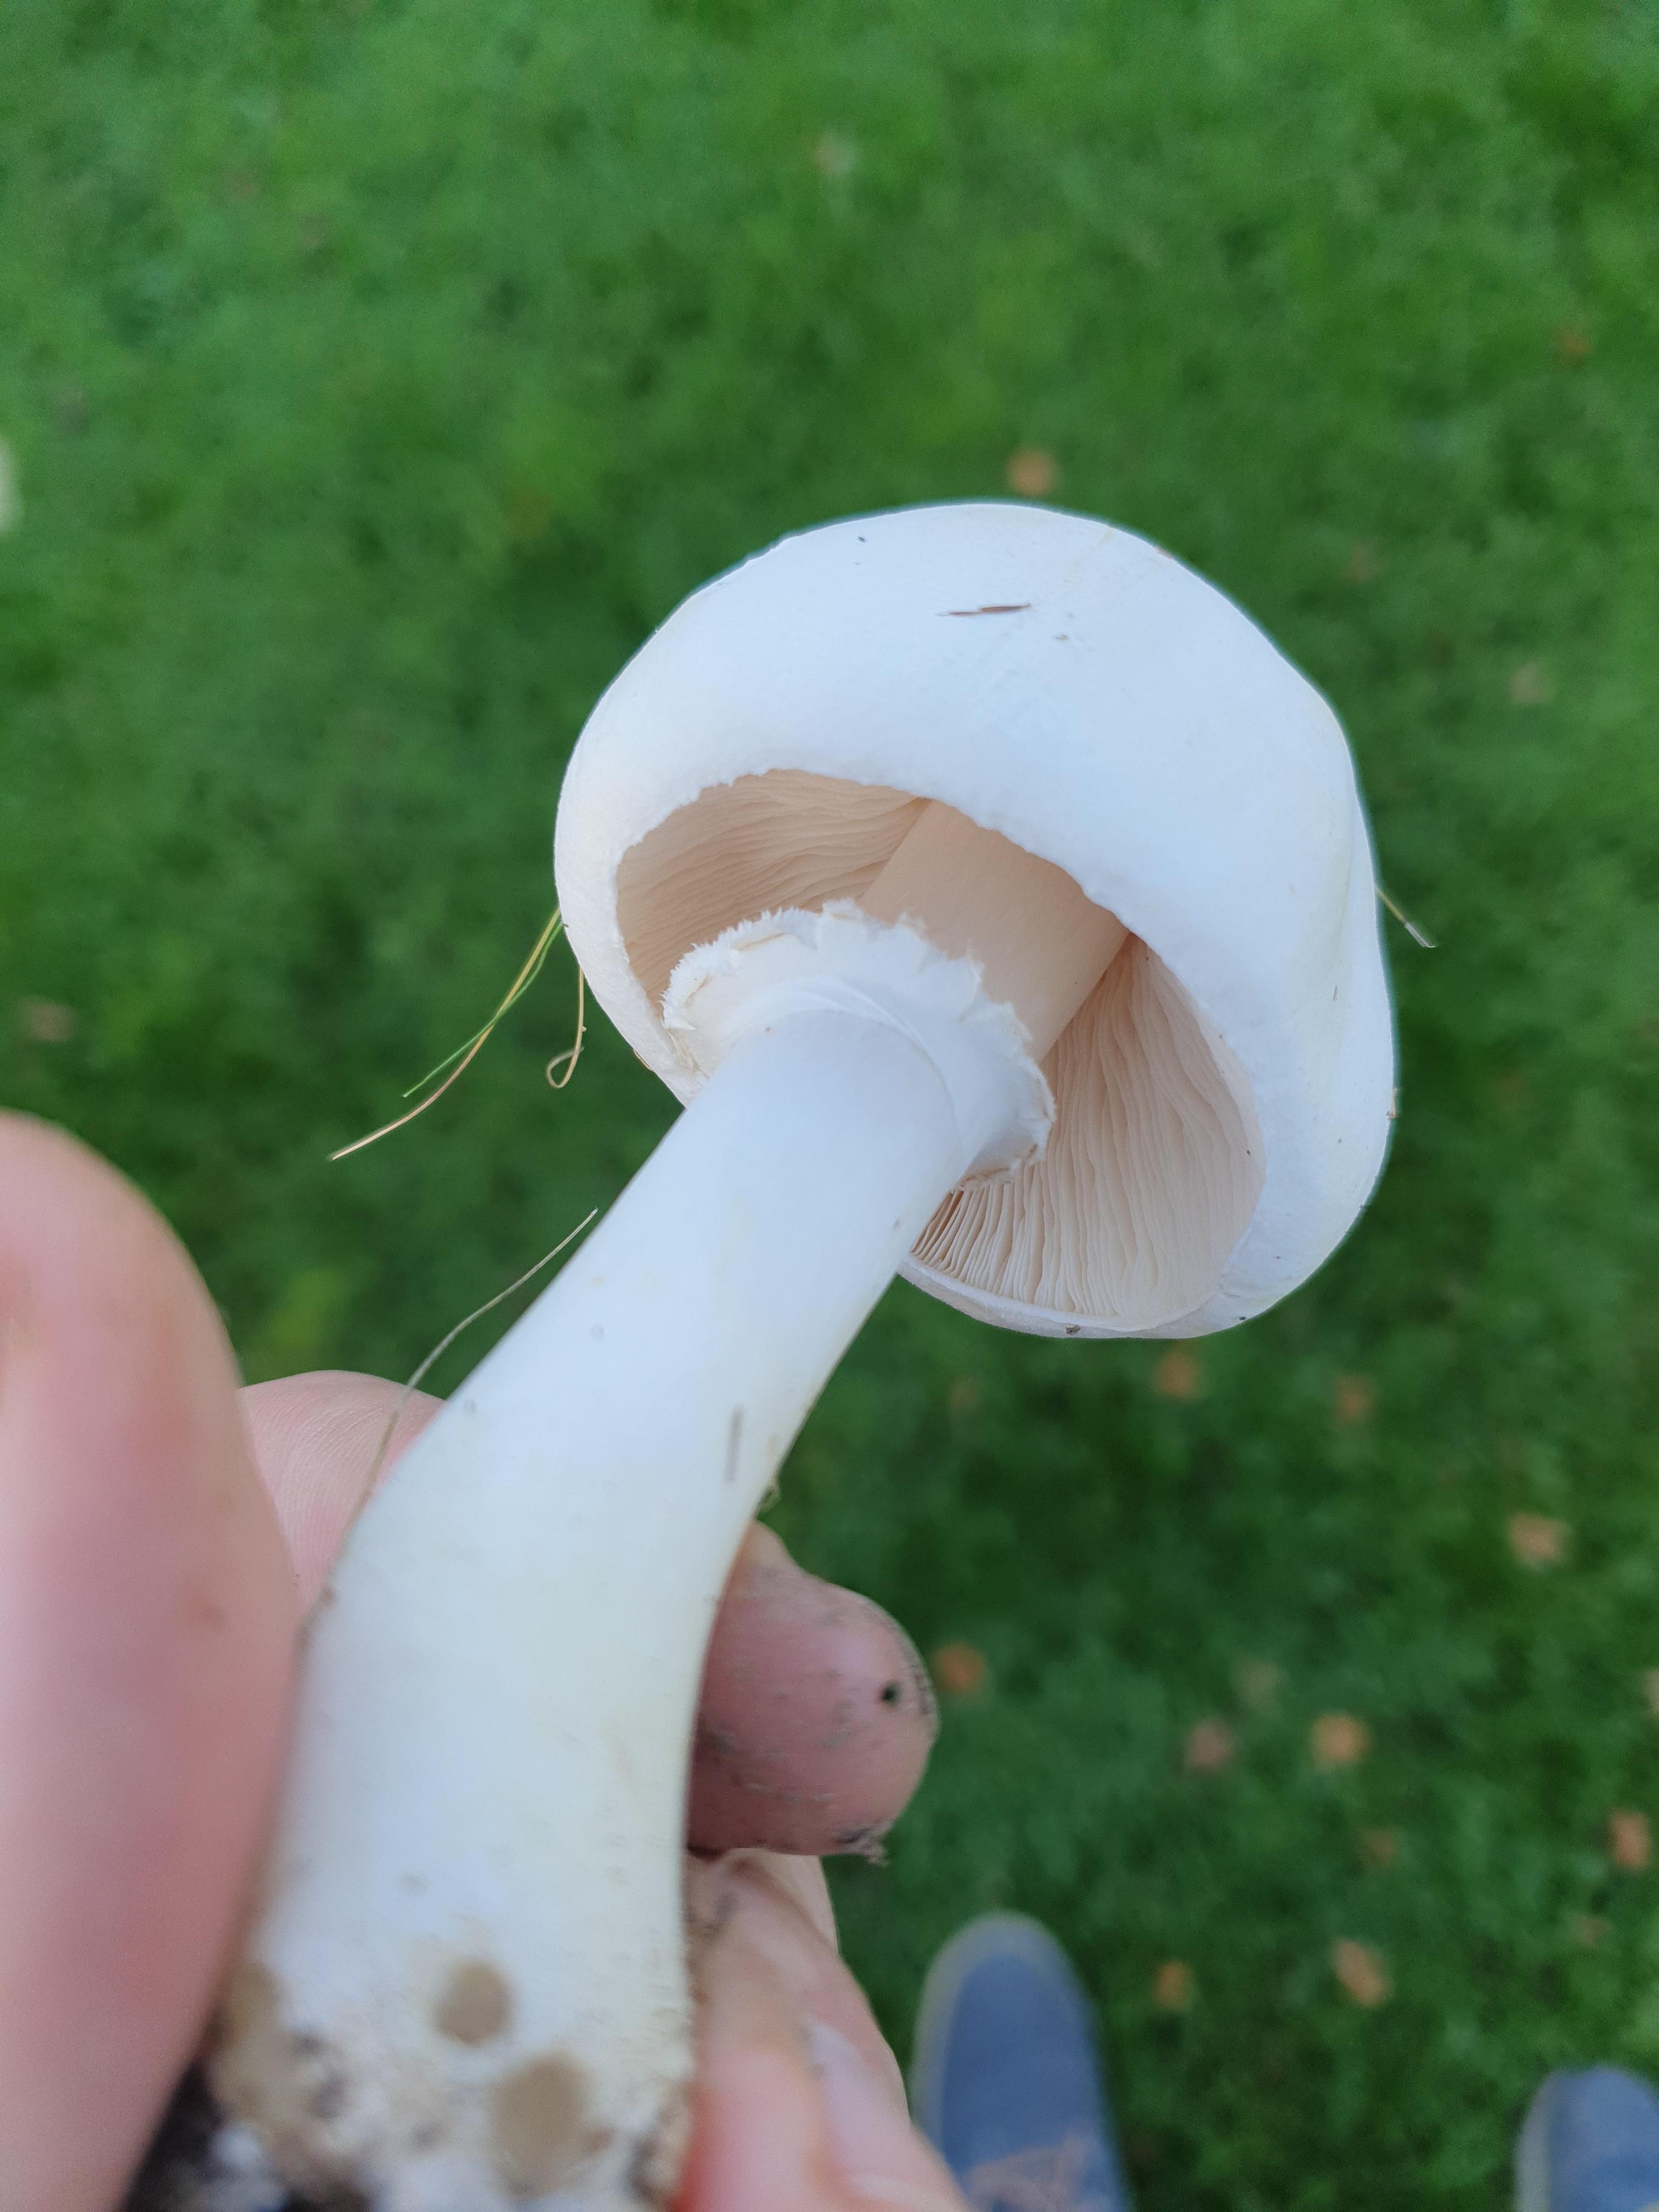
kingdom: Fungi
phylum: Basidiomycota
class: Agaricomycetes
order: Agaricales
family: Agaricaceae
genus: Leucoagaricus
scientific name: Leucoagaricus leucothites
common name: rosabladet silkehat
